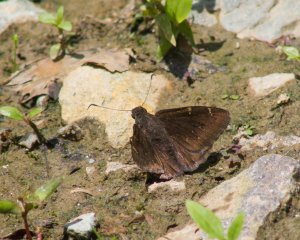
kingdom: Animalia
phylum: Arthropoda
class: Insecta
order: Lepidoptera
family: Hesperiidae
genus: Autochton
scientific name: Autochton
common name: Northern Cloudywing
